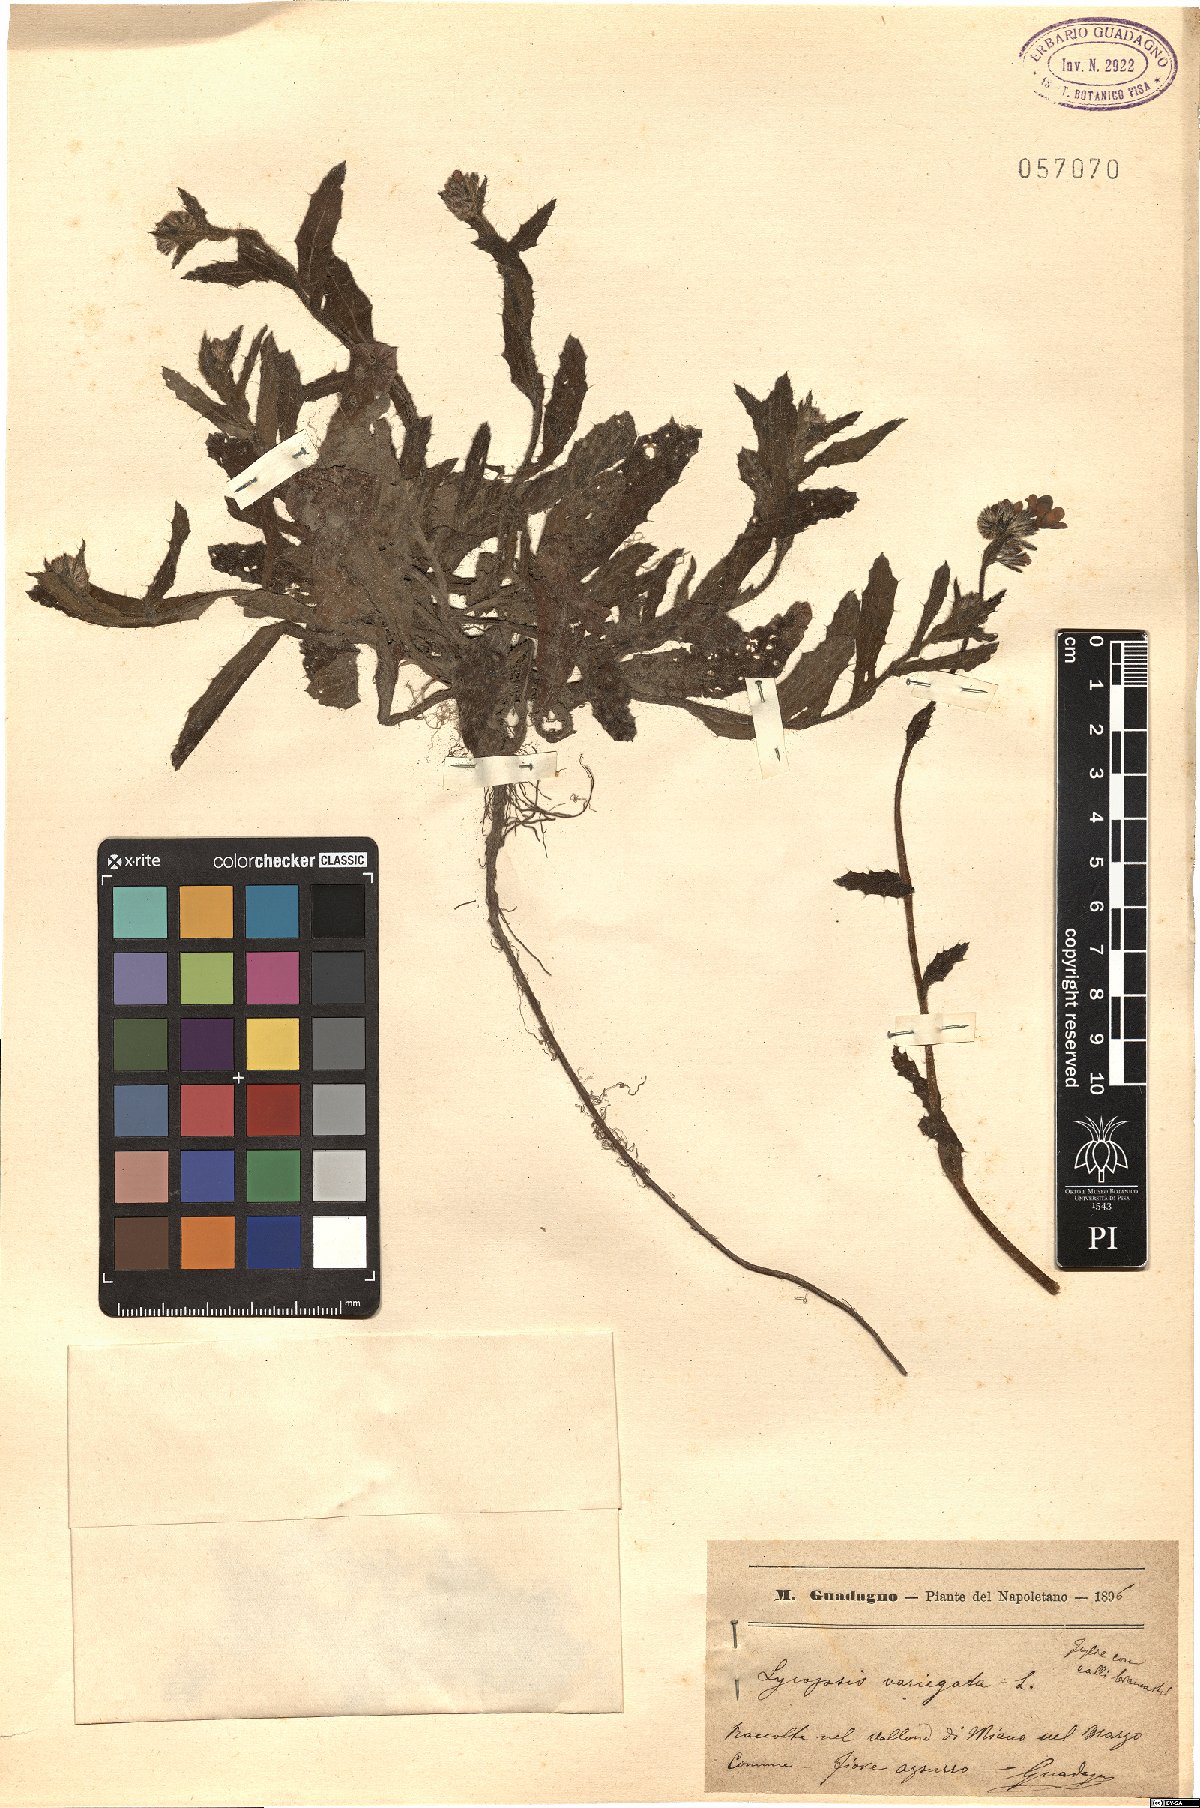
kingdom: Plantae
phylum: Tracheophyta
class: Magnoliopsida
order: Boraginales
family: Boraginaceae
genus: Anchusella
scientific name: Anchusella variegata
